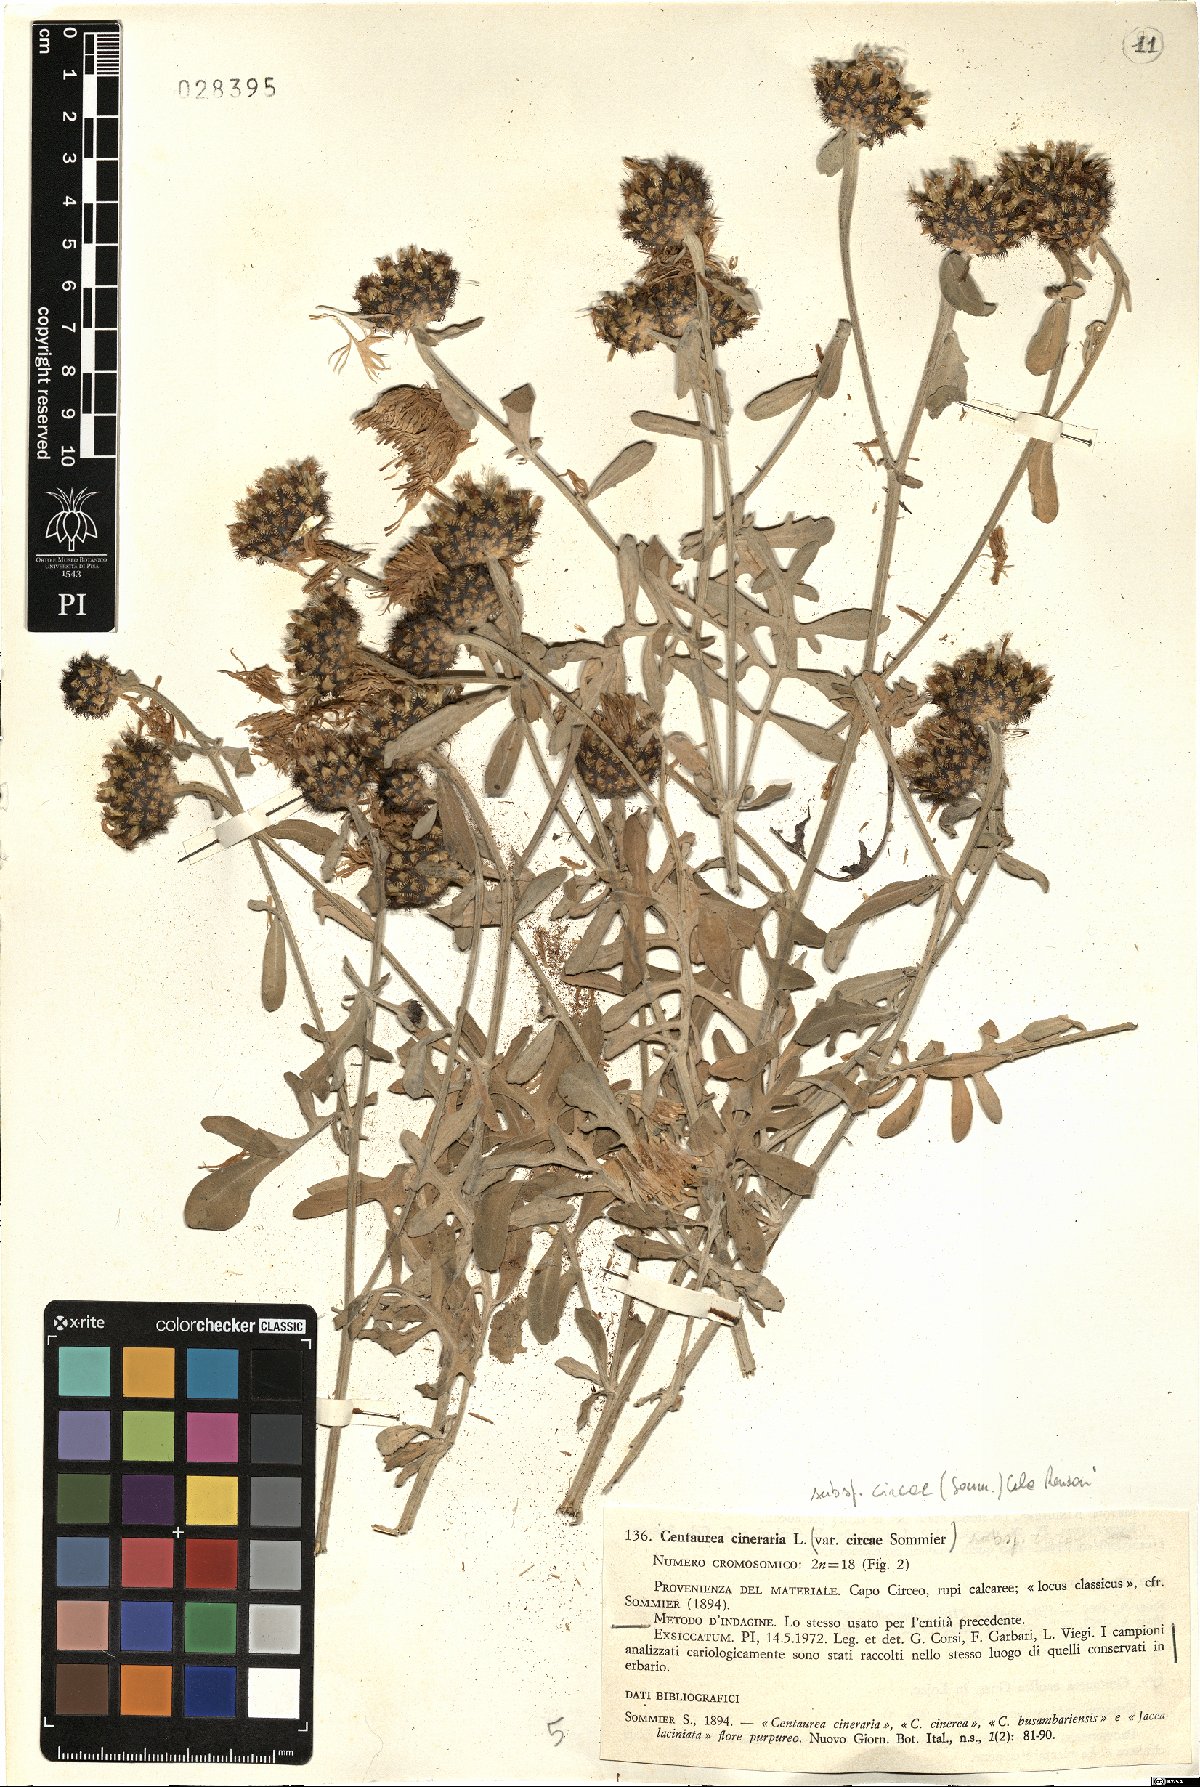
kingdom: Plantae
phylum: Tracheophyta
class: Magnoliopsida
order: Asterales
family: Asteraceae
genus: Centaurea
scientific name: Centaurea cineraria
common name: Dusty miller
